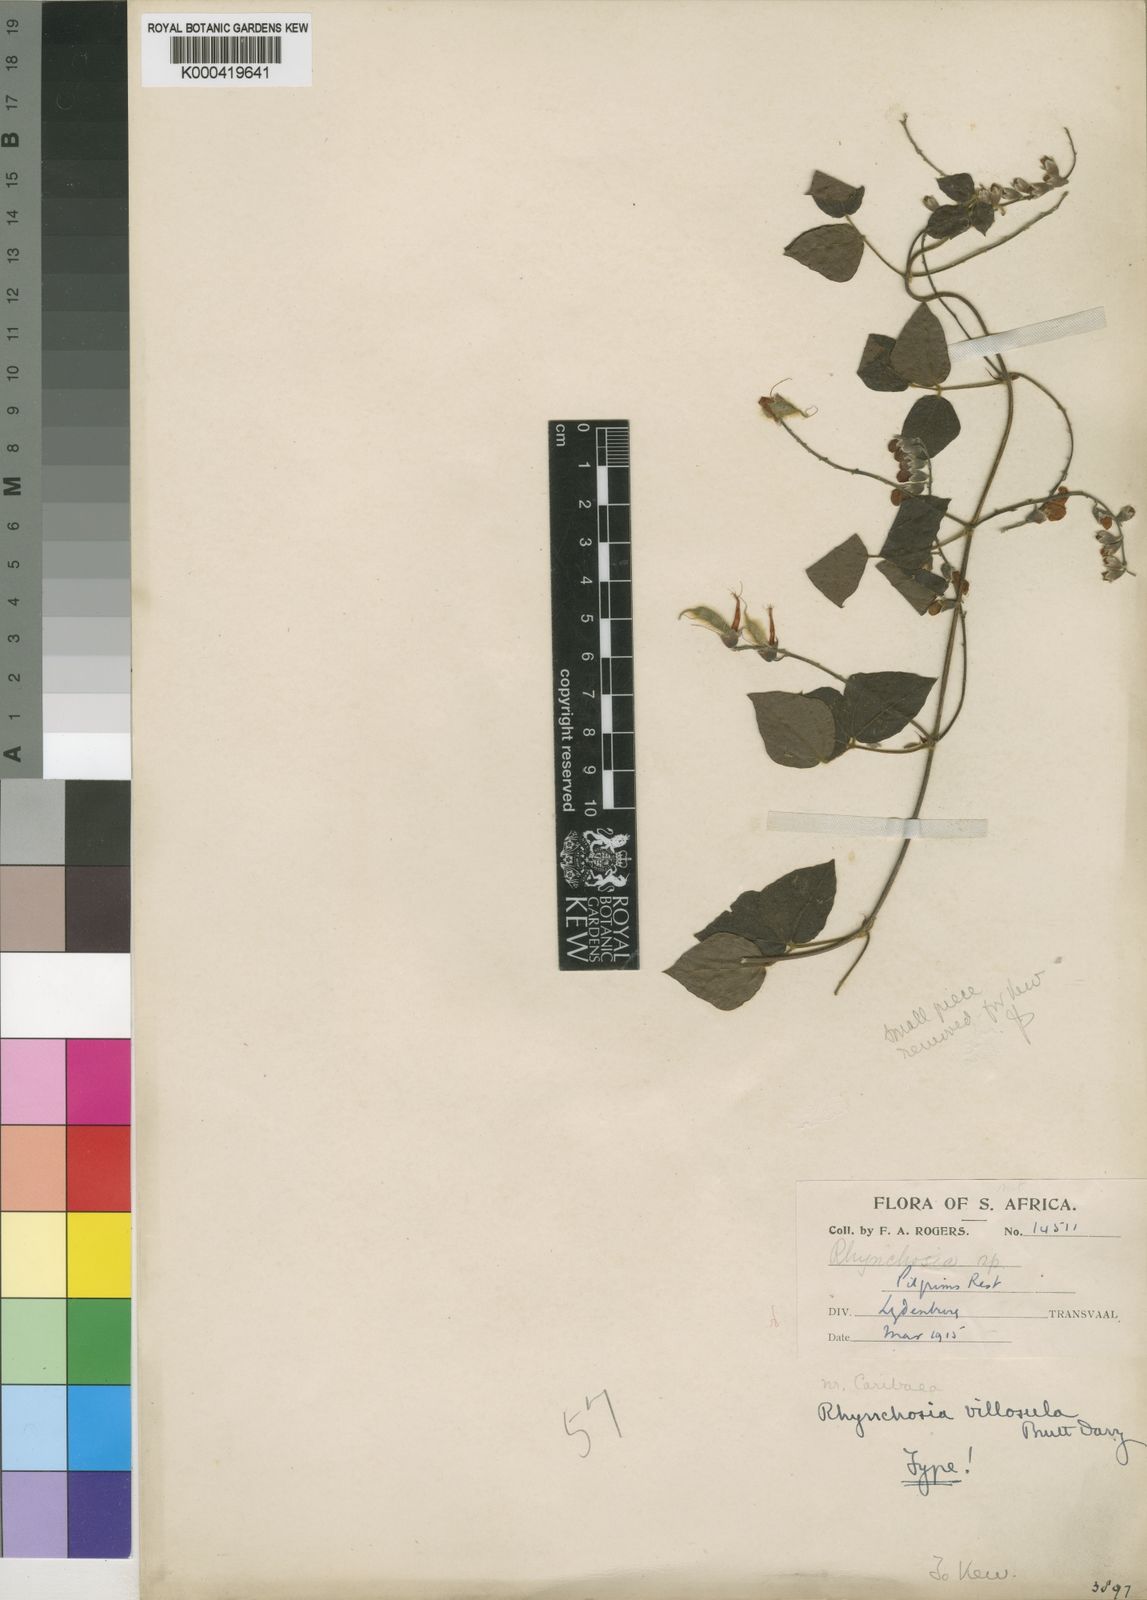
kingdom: Plantae
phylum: Tracheophyta
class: Magnoliopsida
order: Fabales
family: Fabaceae
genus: Rhynchosia
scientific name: Rhynchosia caribaea
